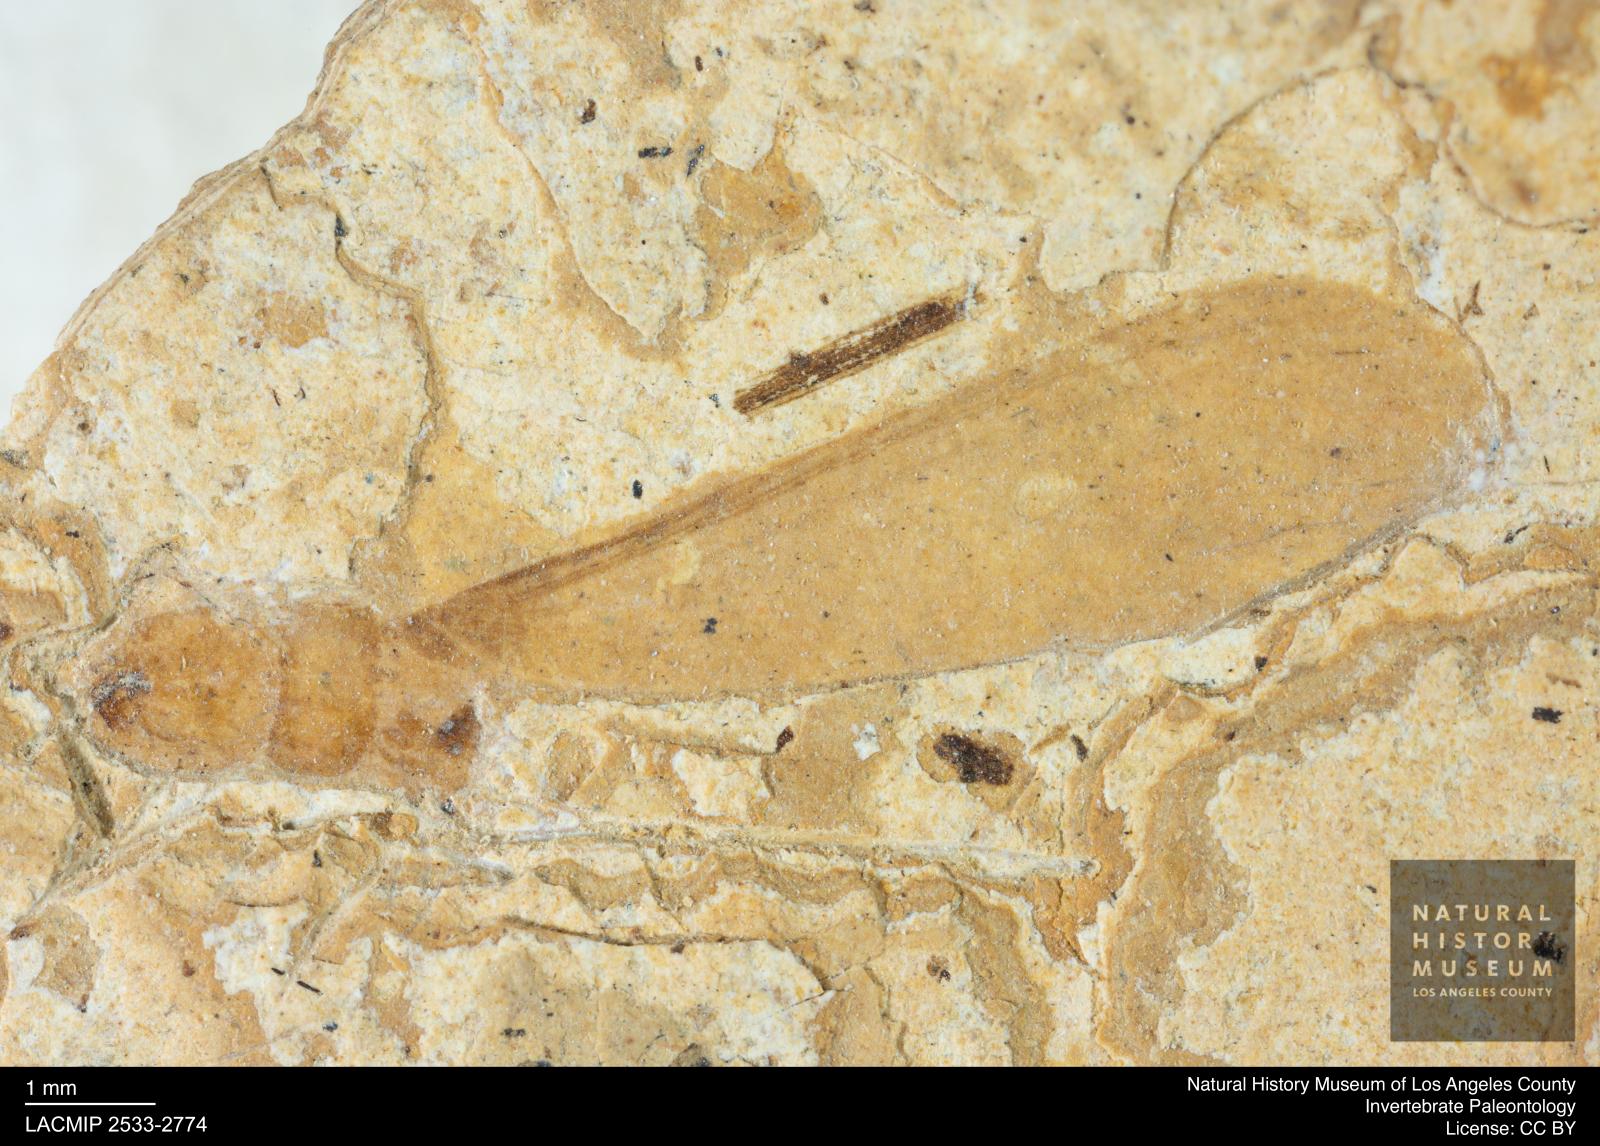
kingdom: Animalia
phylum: Arthropoda
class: Insecta
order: Blattodea
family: Kalotermitidae
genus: Kalotermes
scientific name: Kalotermes rhenanus
